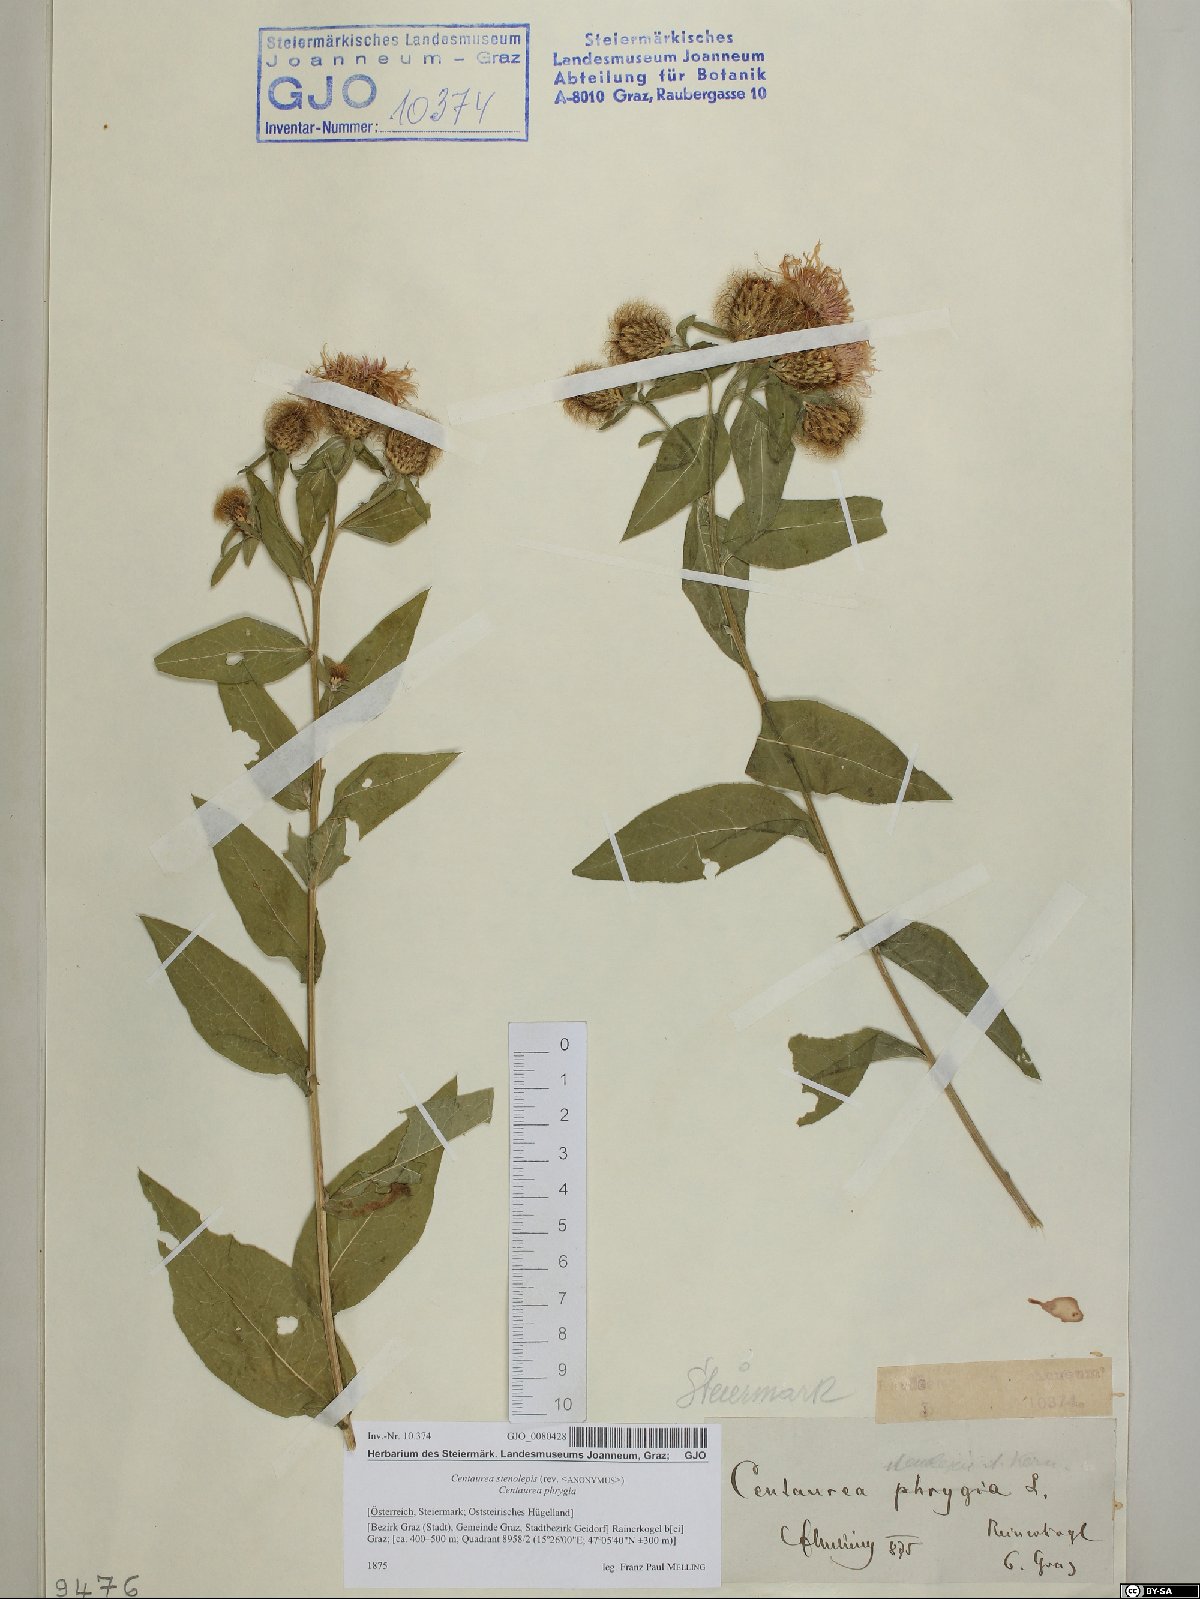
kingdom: Plantae
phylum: Tracheophyta
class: Magnoliopsida
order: Asterales
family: Asteraceae
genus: Centaurea
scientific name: Centaurea stenolepis
